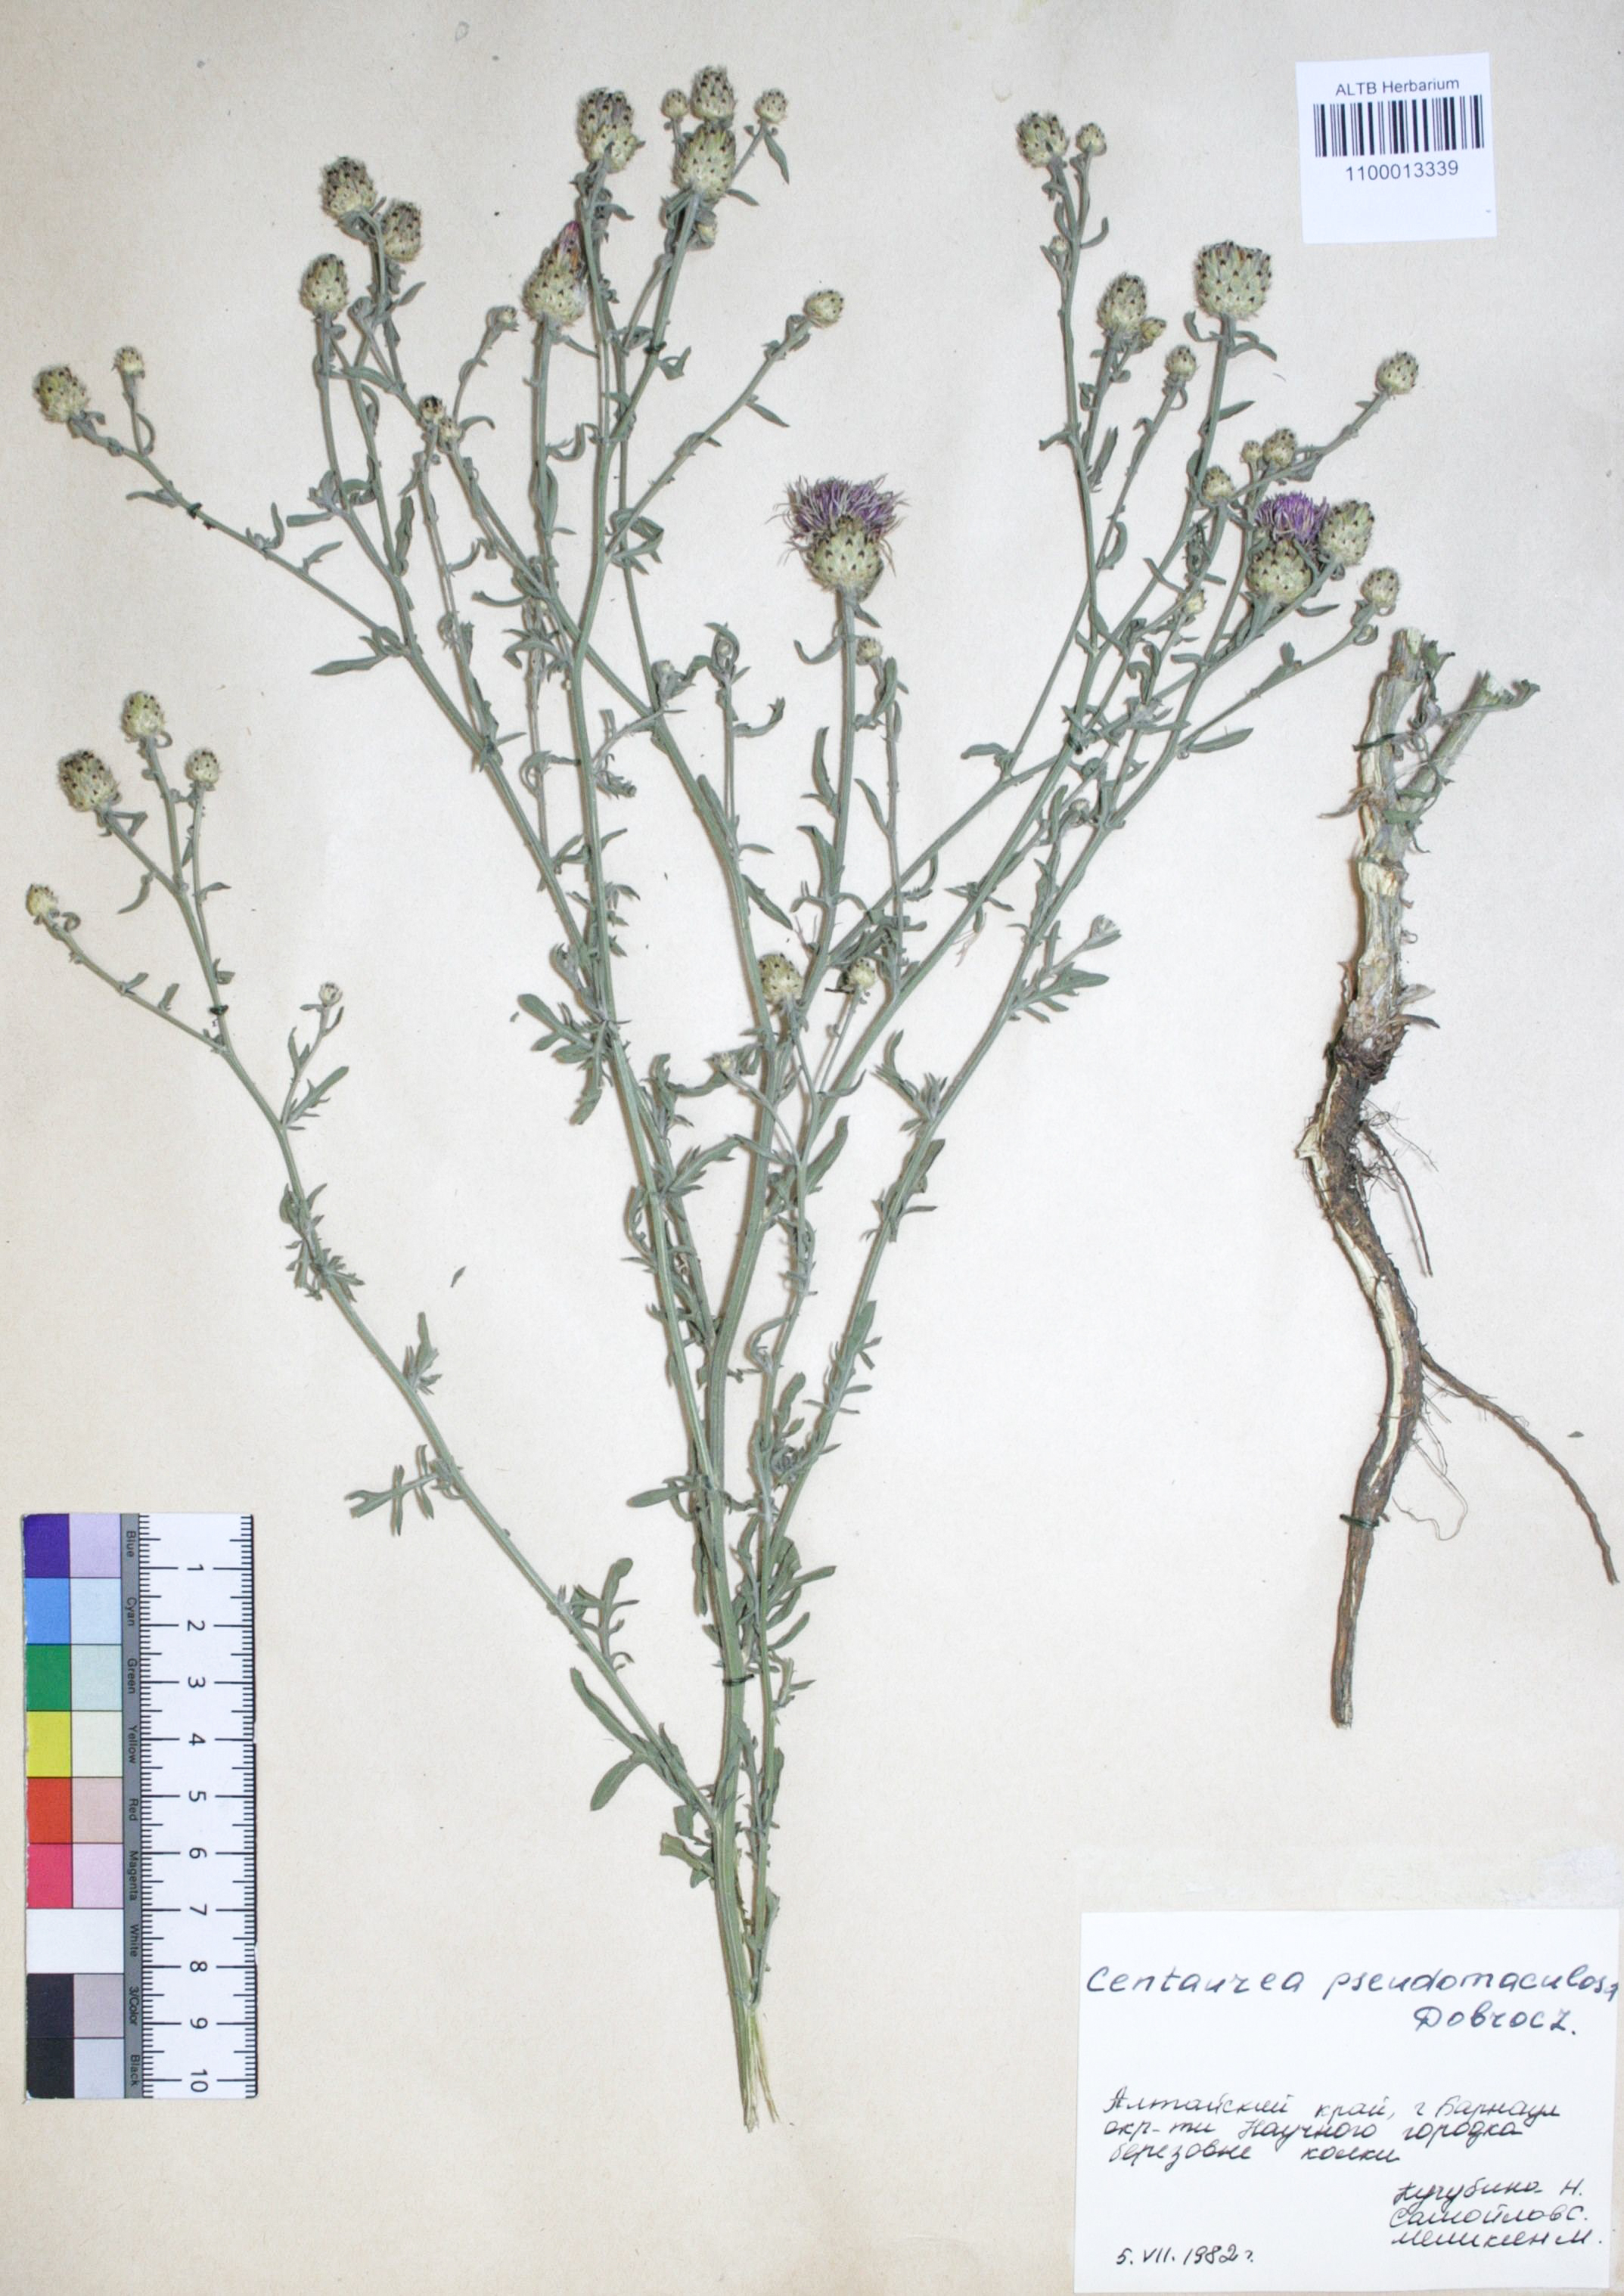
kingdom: Plantae
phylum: Tracheophyta
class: Magnoliopsida
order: Asterales
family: Asteraceae
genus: Centaurea
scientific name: Centaurea pseudomaculosa
